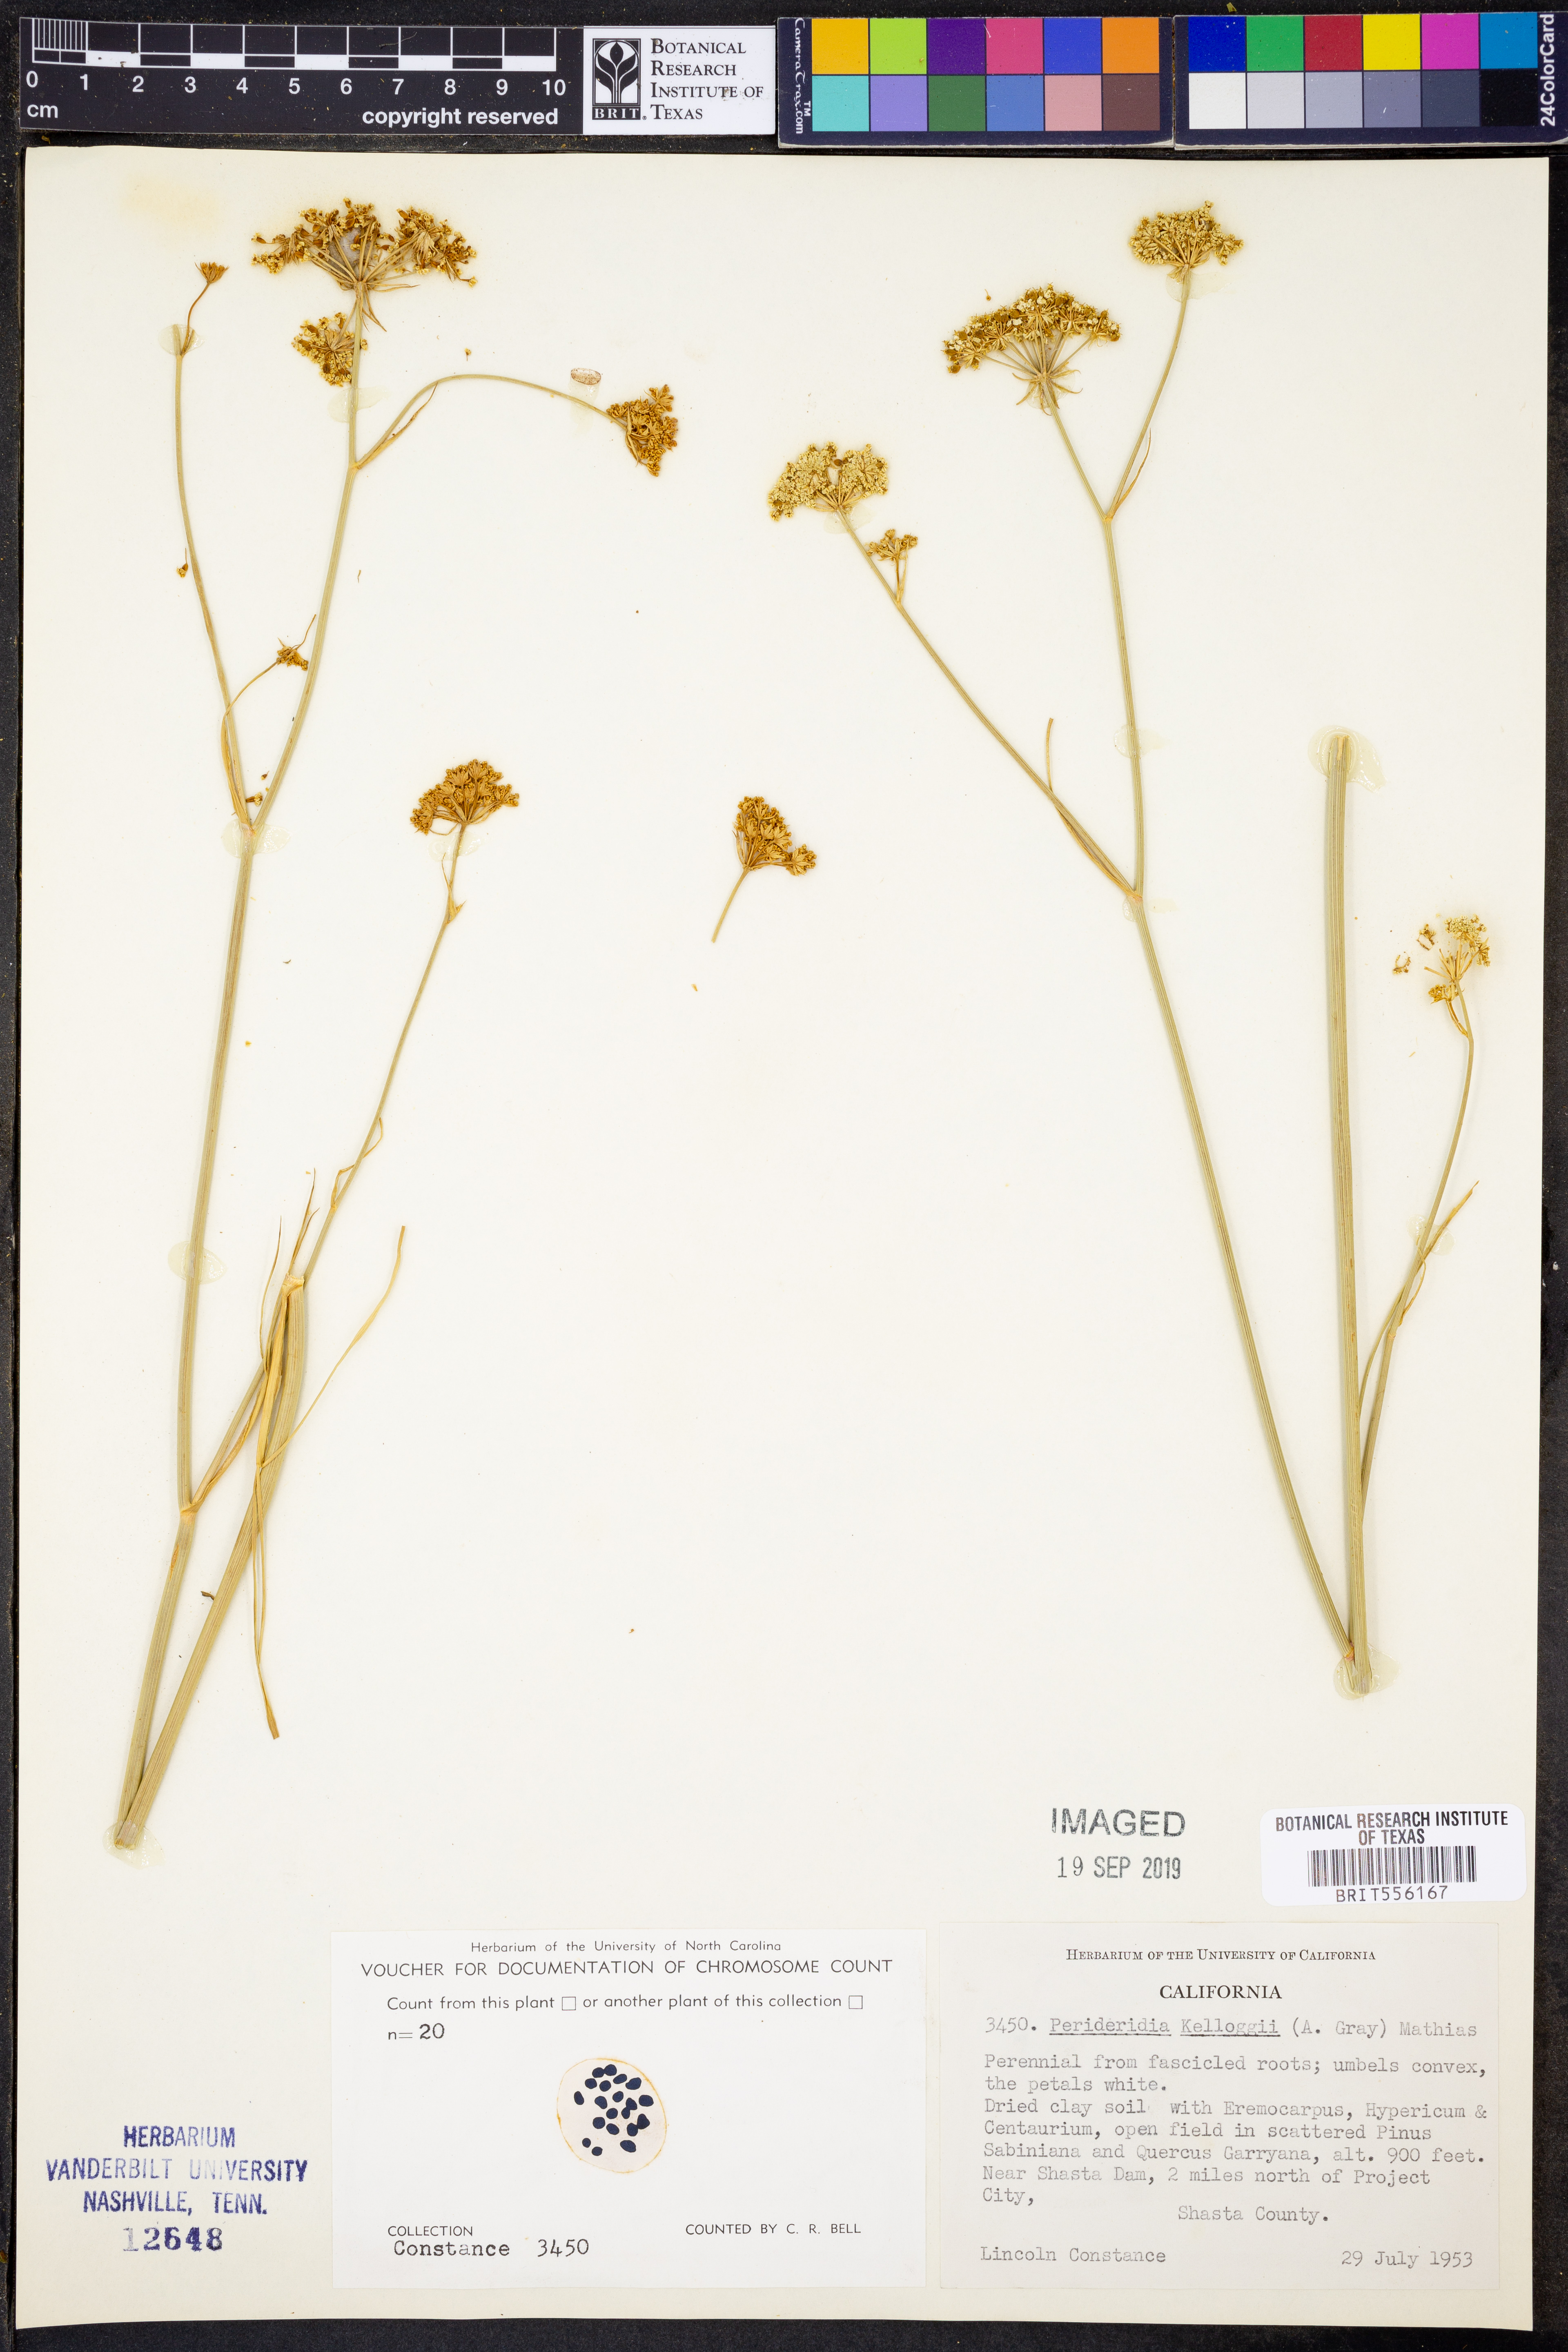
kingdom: Plantae
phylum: Tracheophyta
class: Magnoliopsida
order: Apiales
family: Apiaceae
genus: Perideridia
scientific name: Perideridia kelloggii
